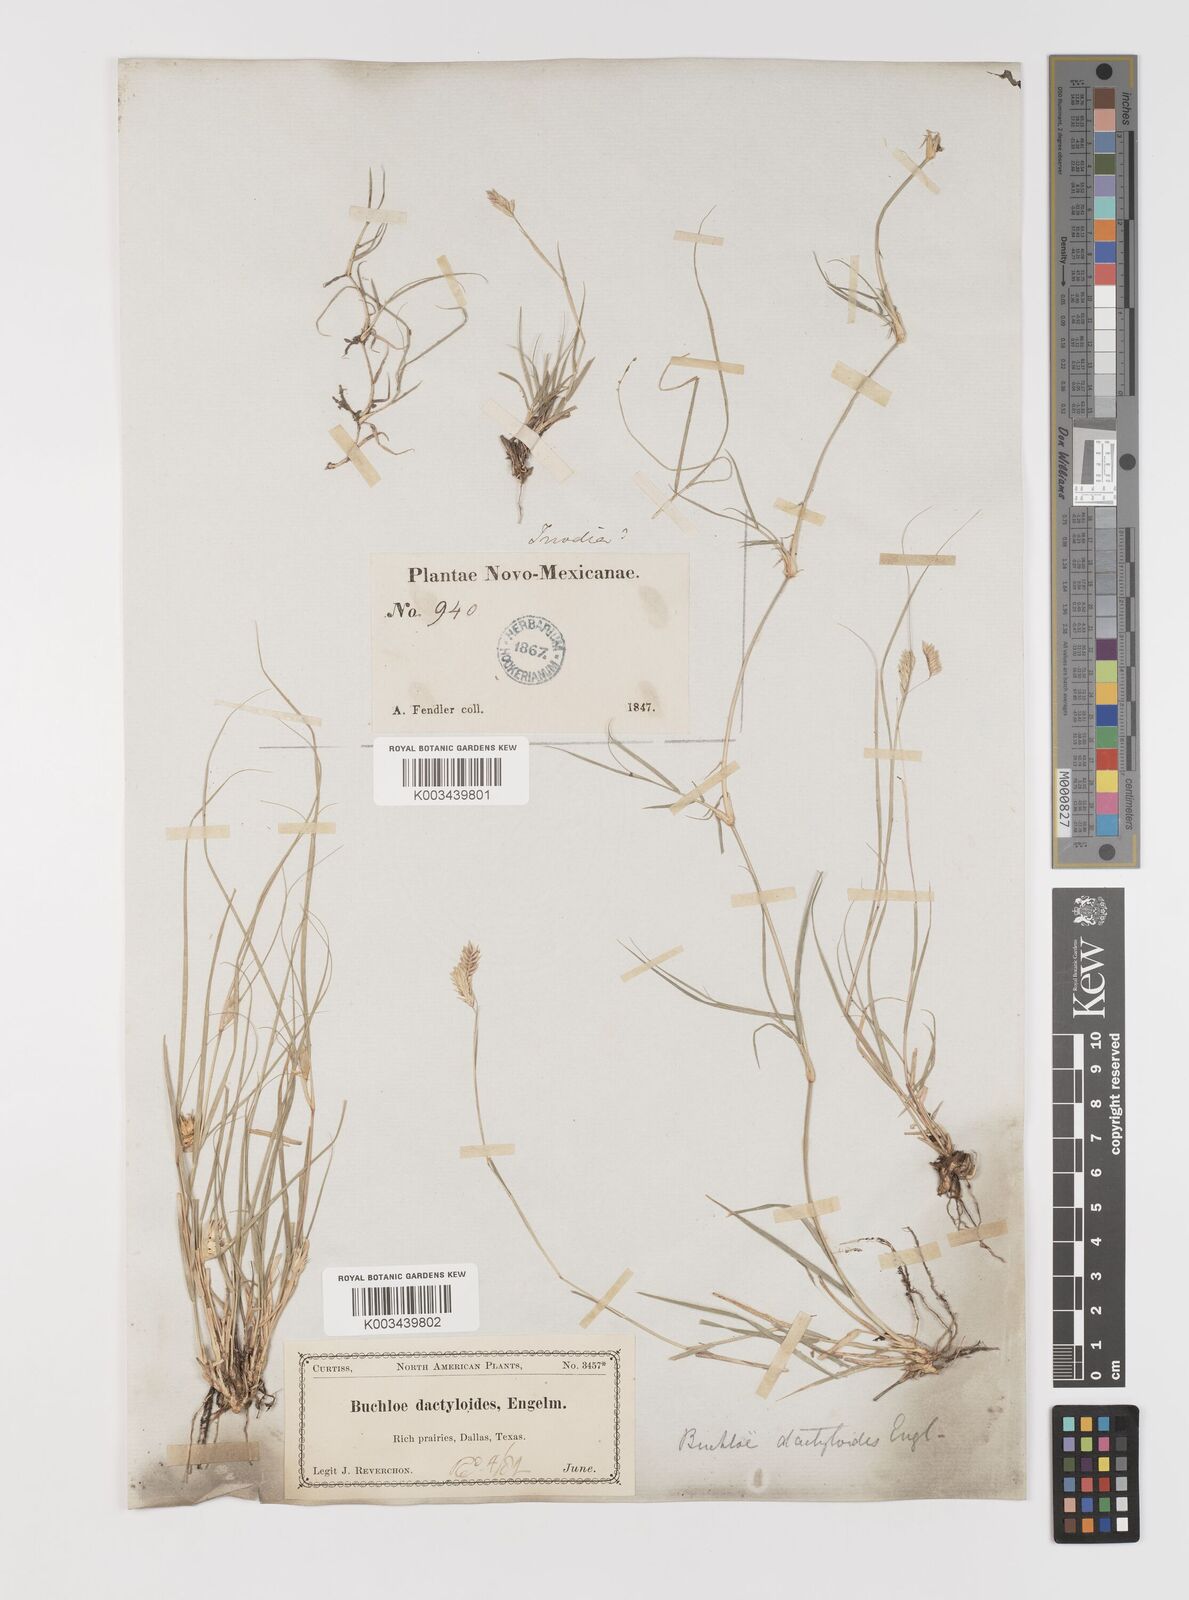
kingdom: Plantae
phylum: Tracheophyta
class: Liliopsida
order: Poales
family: Poaceae
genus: Bouteloua
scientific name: Bouteloua dactyloides
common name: Buffalo grass
